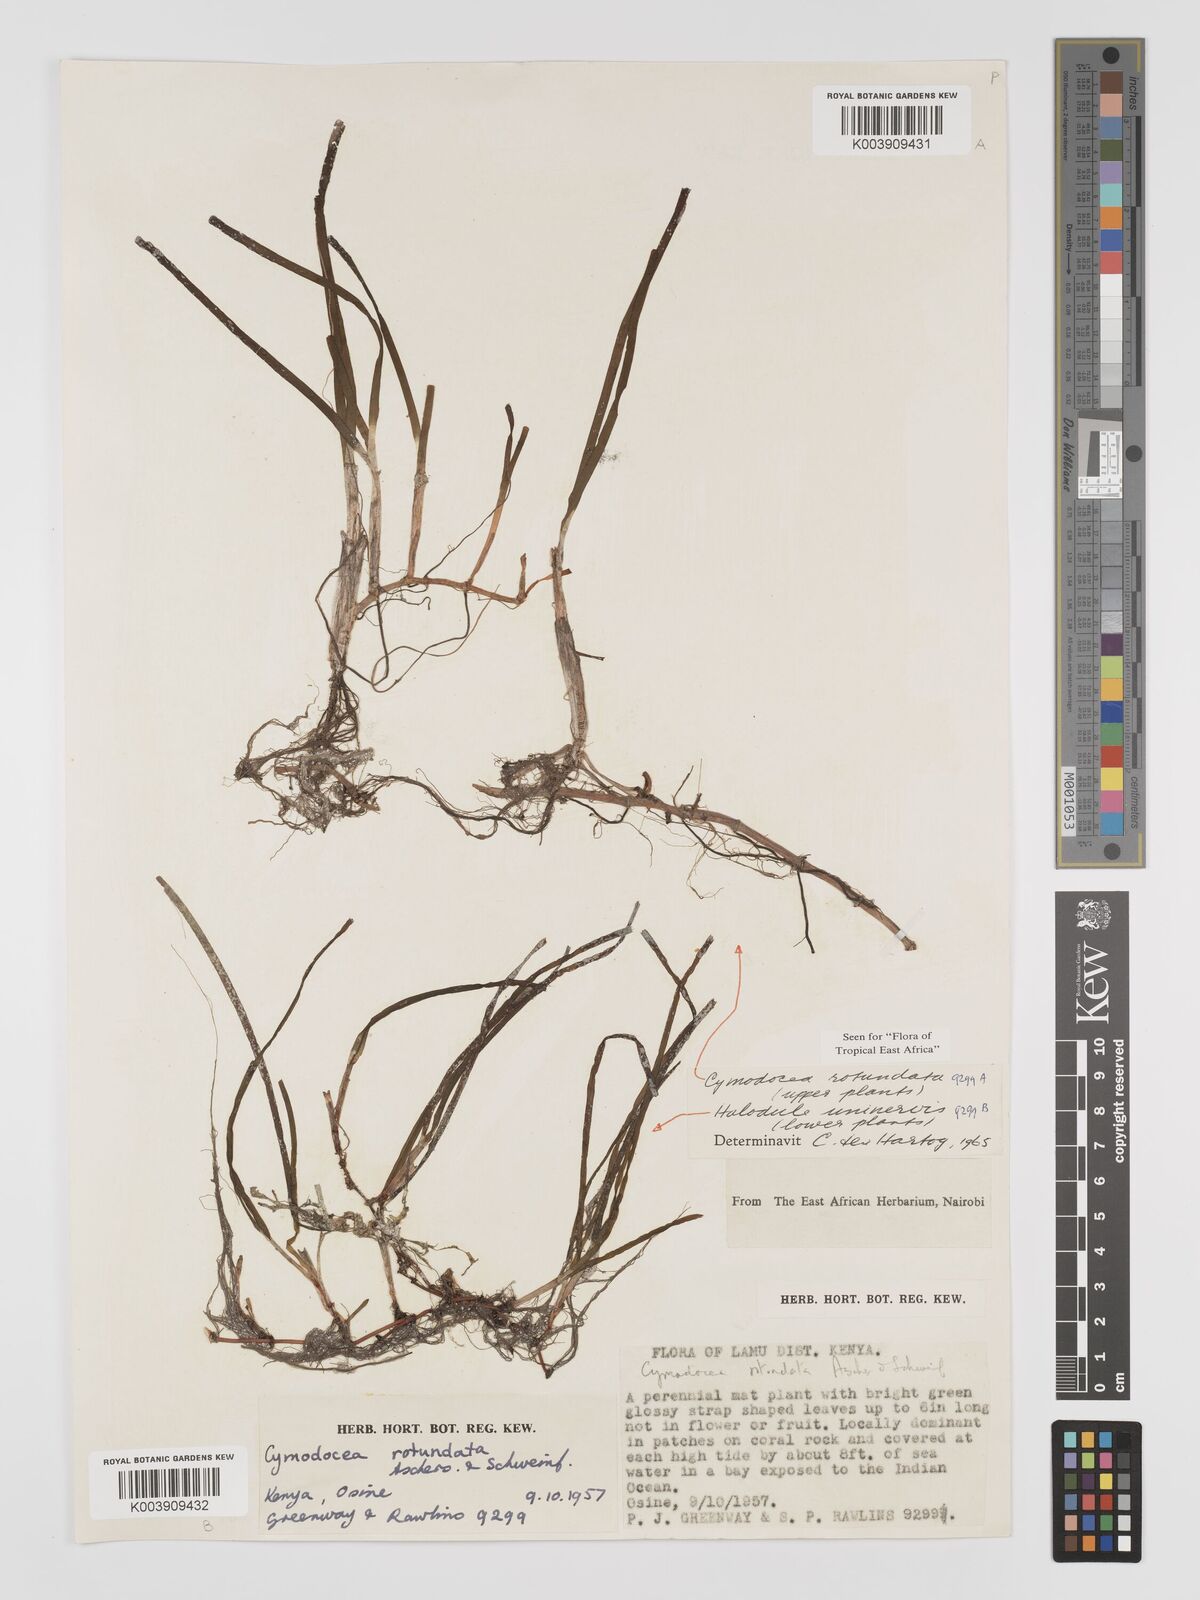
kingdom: Plantae
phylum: Tracheophyta
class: Liliopsida
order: Alismatales
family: Cymodoceaceae
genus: Cymodocea
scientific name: Cymodocea rotundata
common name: Species code: cr
